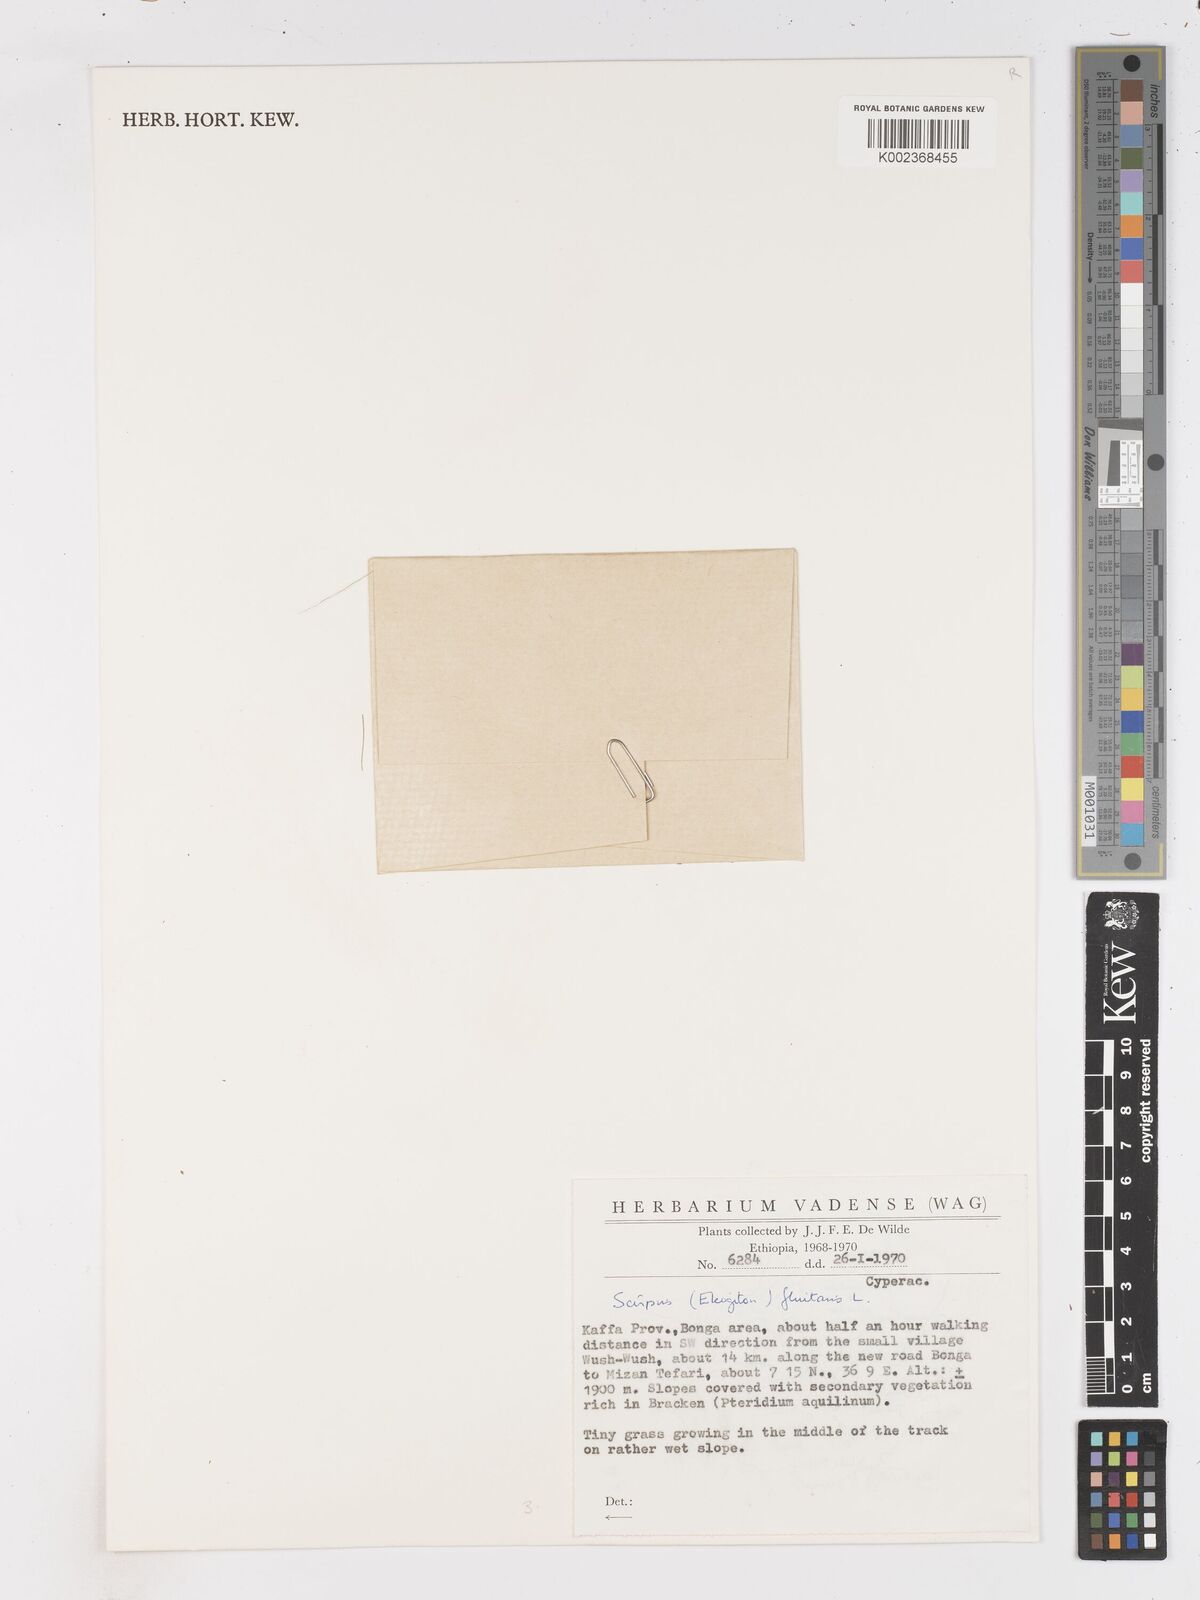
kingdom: Plantae
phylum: Tracheophyta
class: Liliopsida
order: Poales
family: Cyperaceae
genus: Isolepis
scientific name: Isolepis fluitans
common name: Floating club-rush
